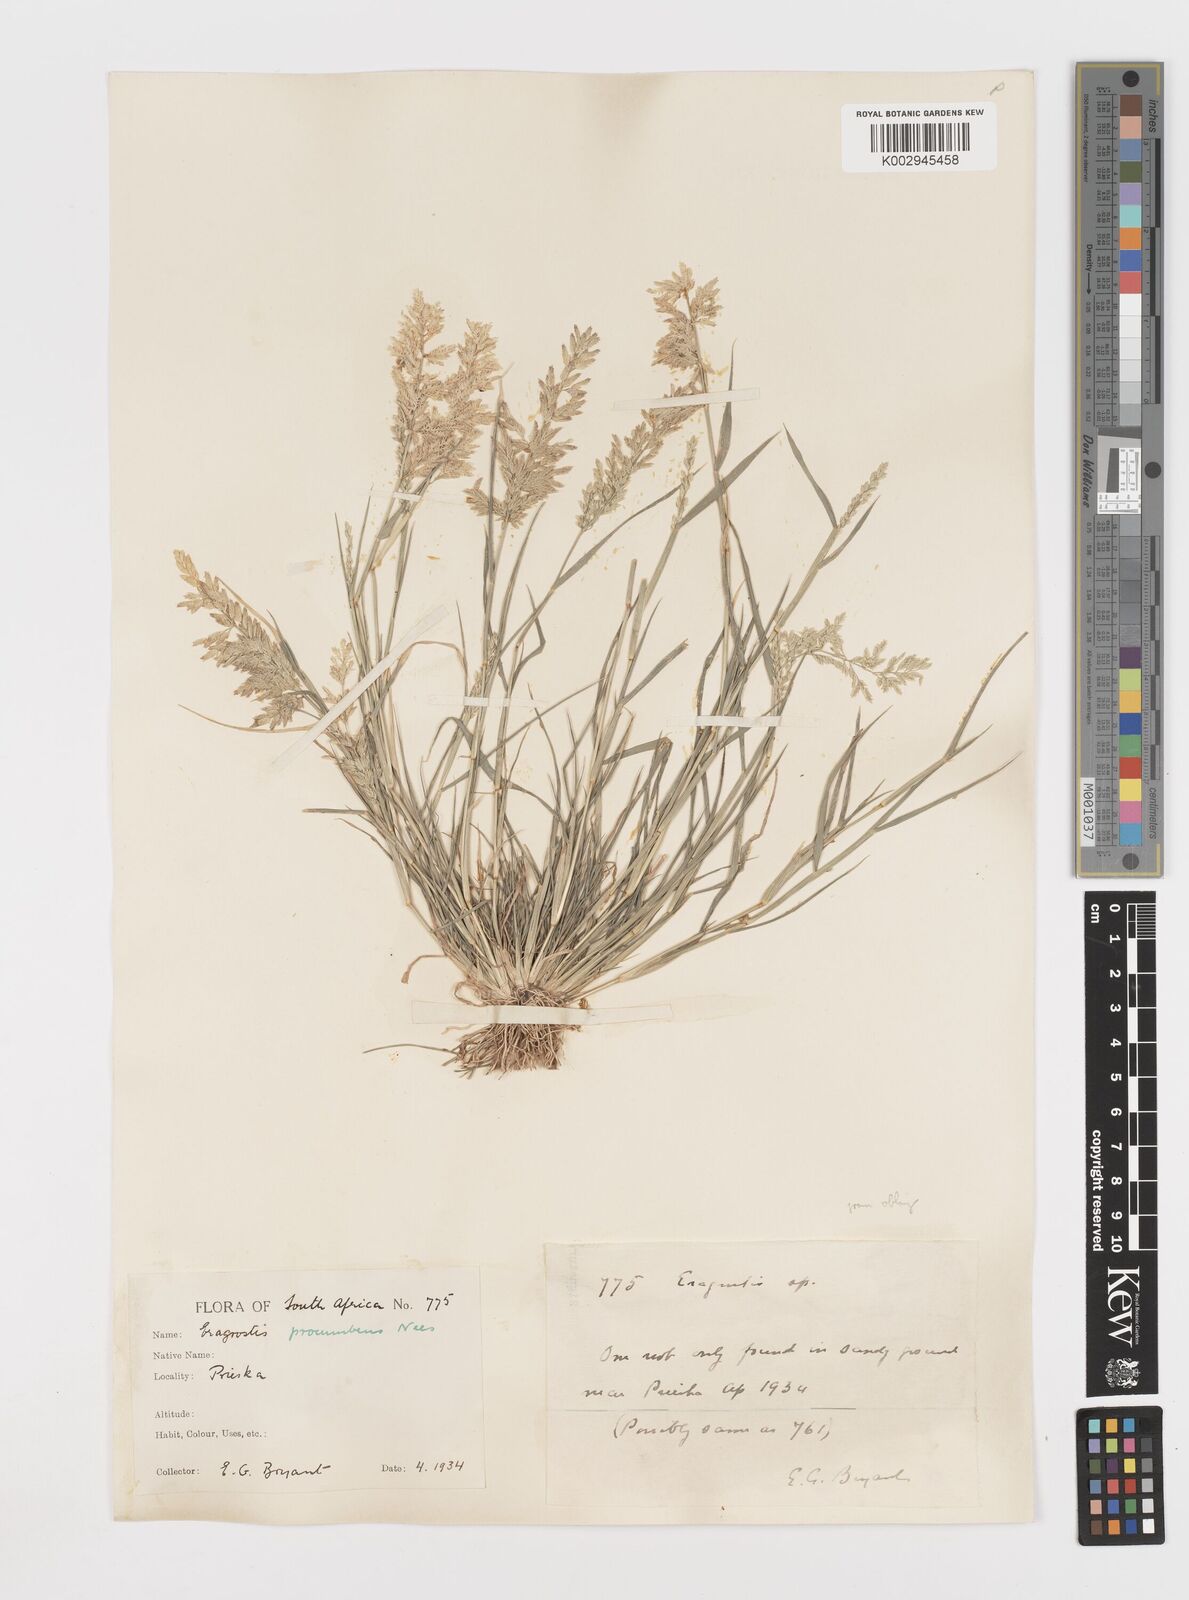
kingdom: Plantae
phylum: Tracheophyta
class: Liliopsida
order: Poales
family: Poaceae
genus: Eragrostis
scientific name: Eragrostis procumbens
